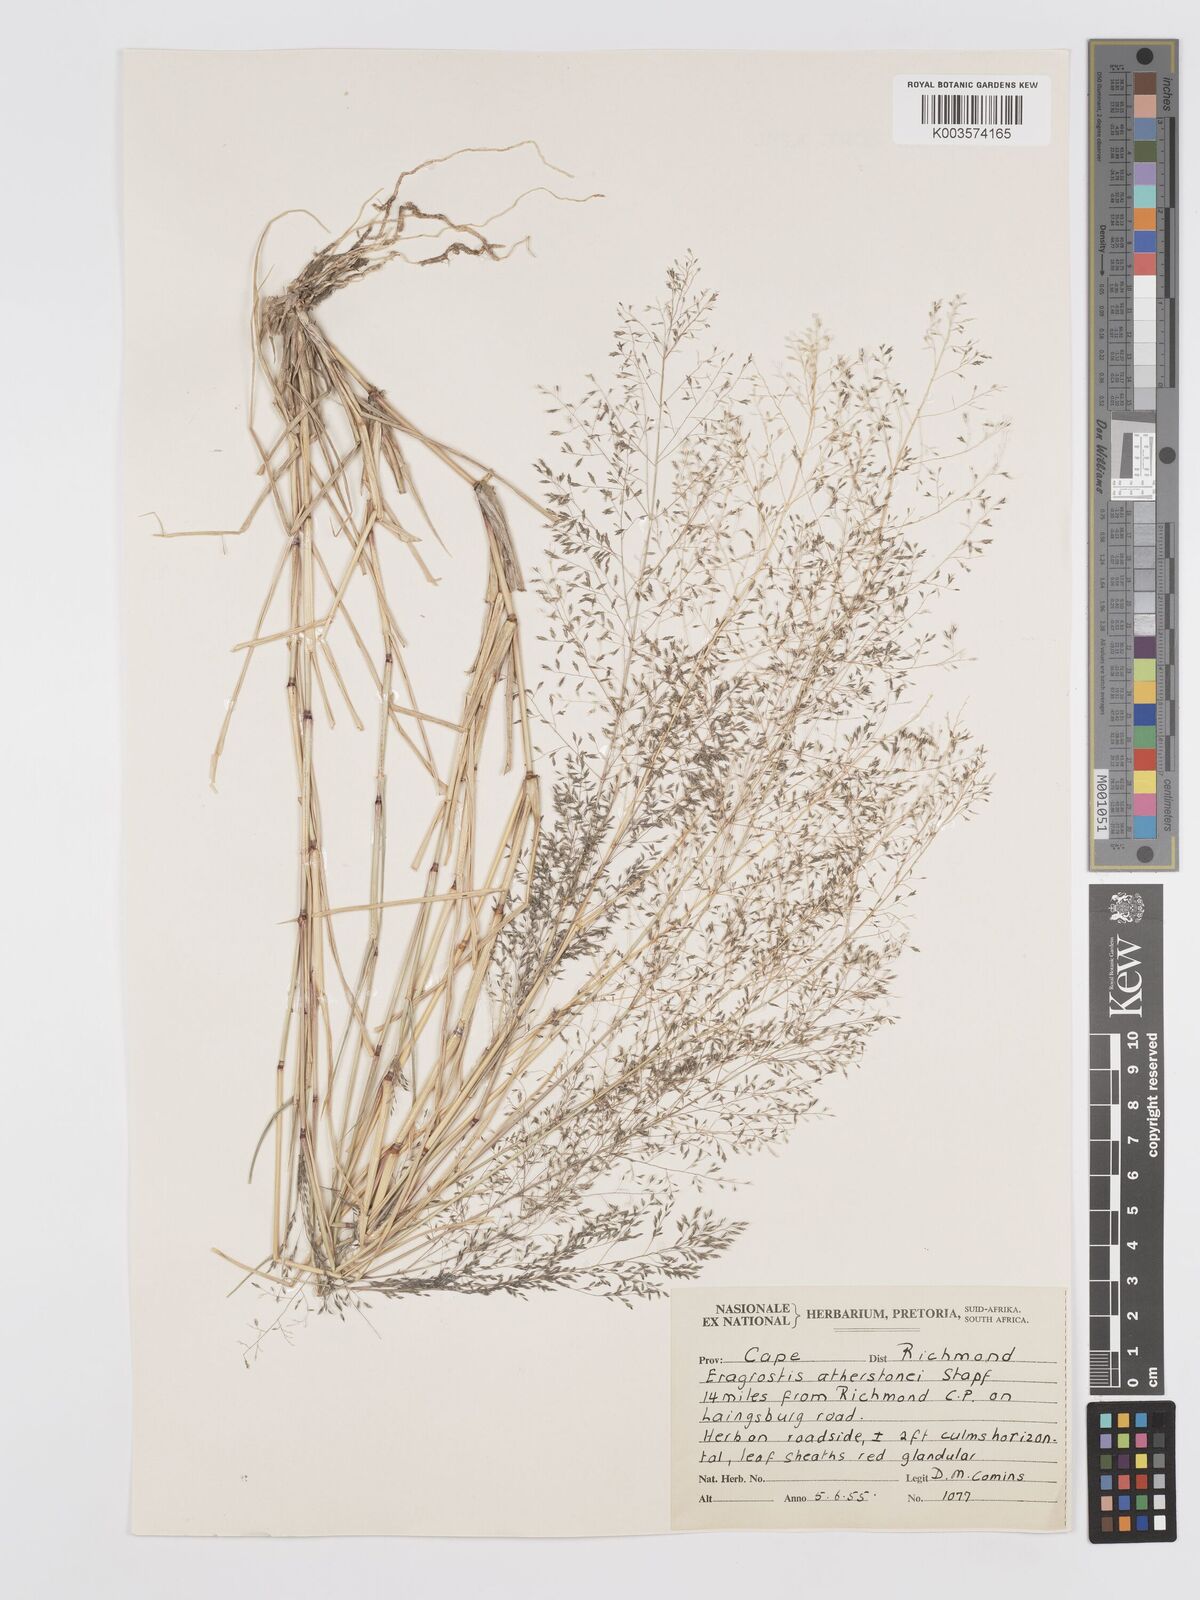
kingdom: Plantae
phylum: Tracheophyta
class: Liliopsida
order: Poales
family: Poaceae
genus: Eragrostis
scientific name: Eragrostis cylindriflora
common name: Cylinderflower lovegrass
